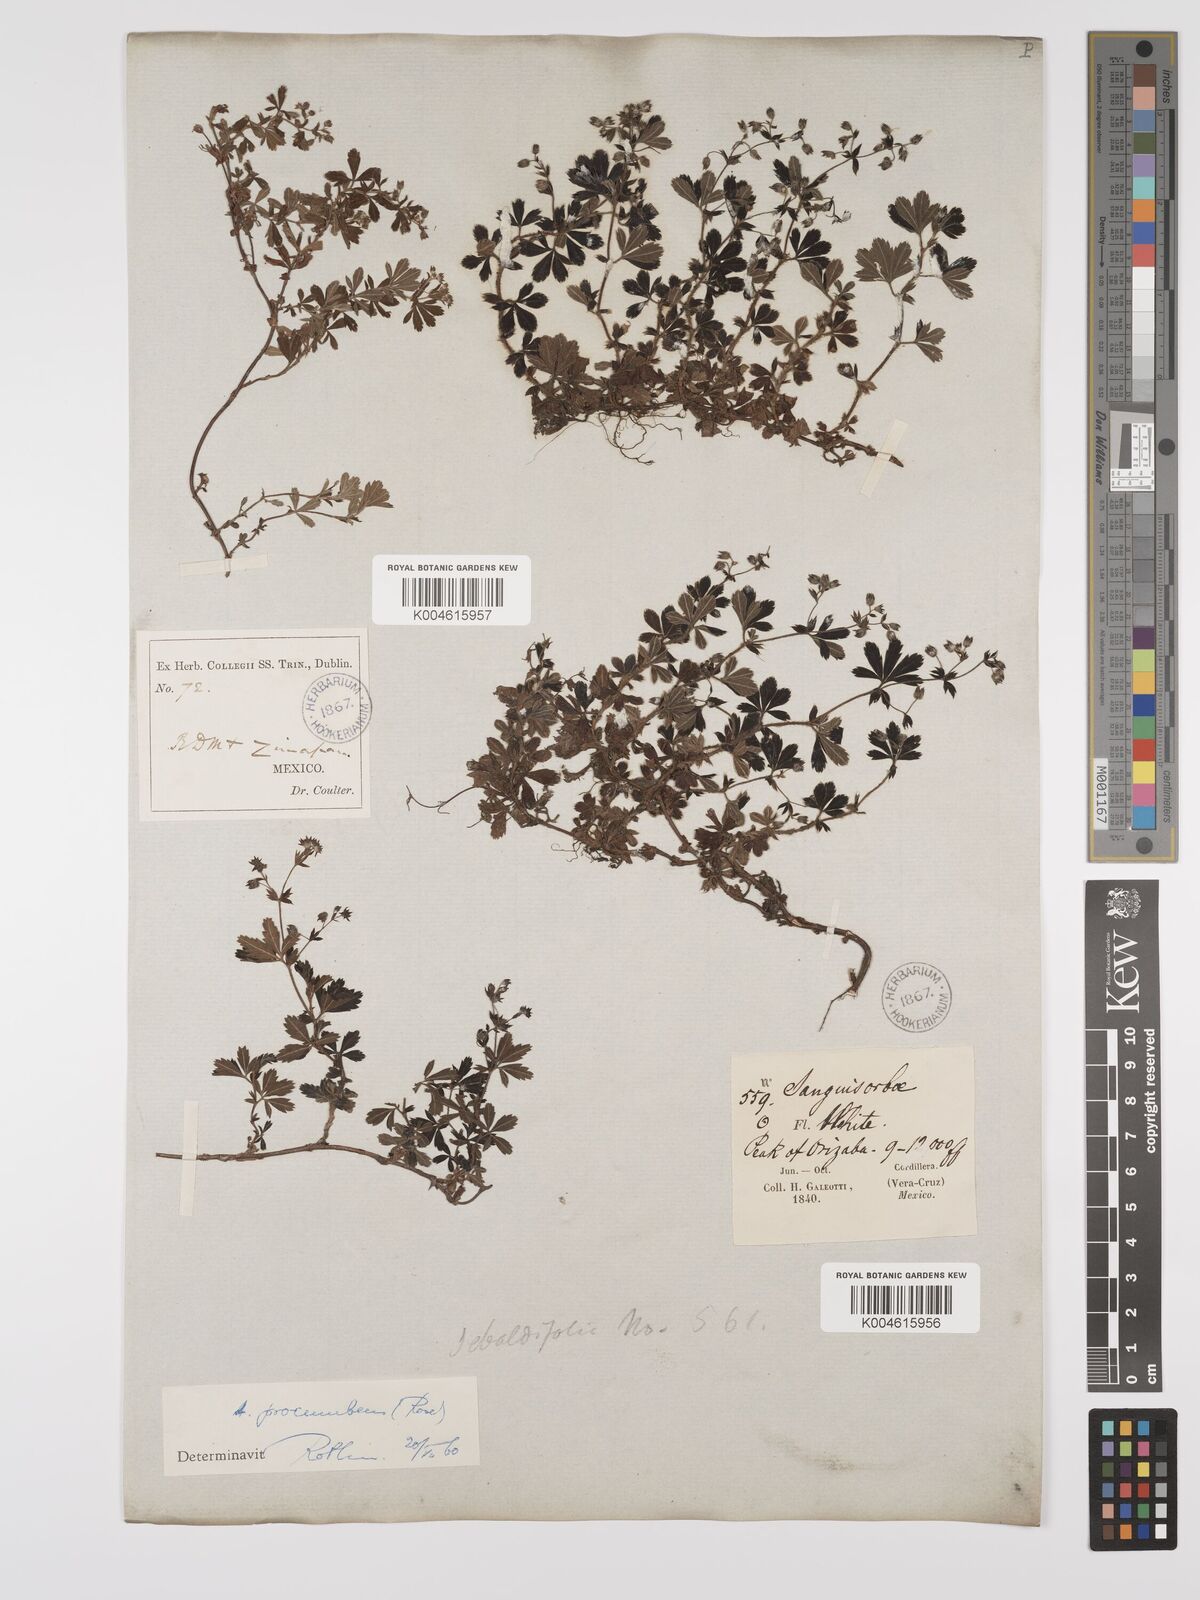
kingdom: Plantae
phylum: Tracheophyta
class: Magnoliopsida
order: Rosales
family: Rosaceae
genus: Lachemilla
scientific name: Lachemilla procumbens
